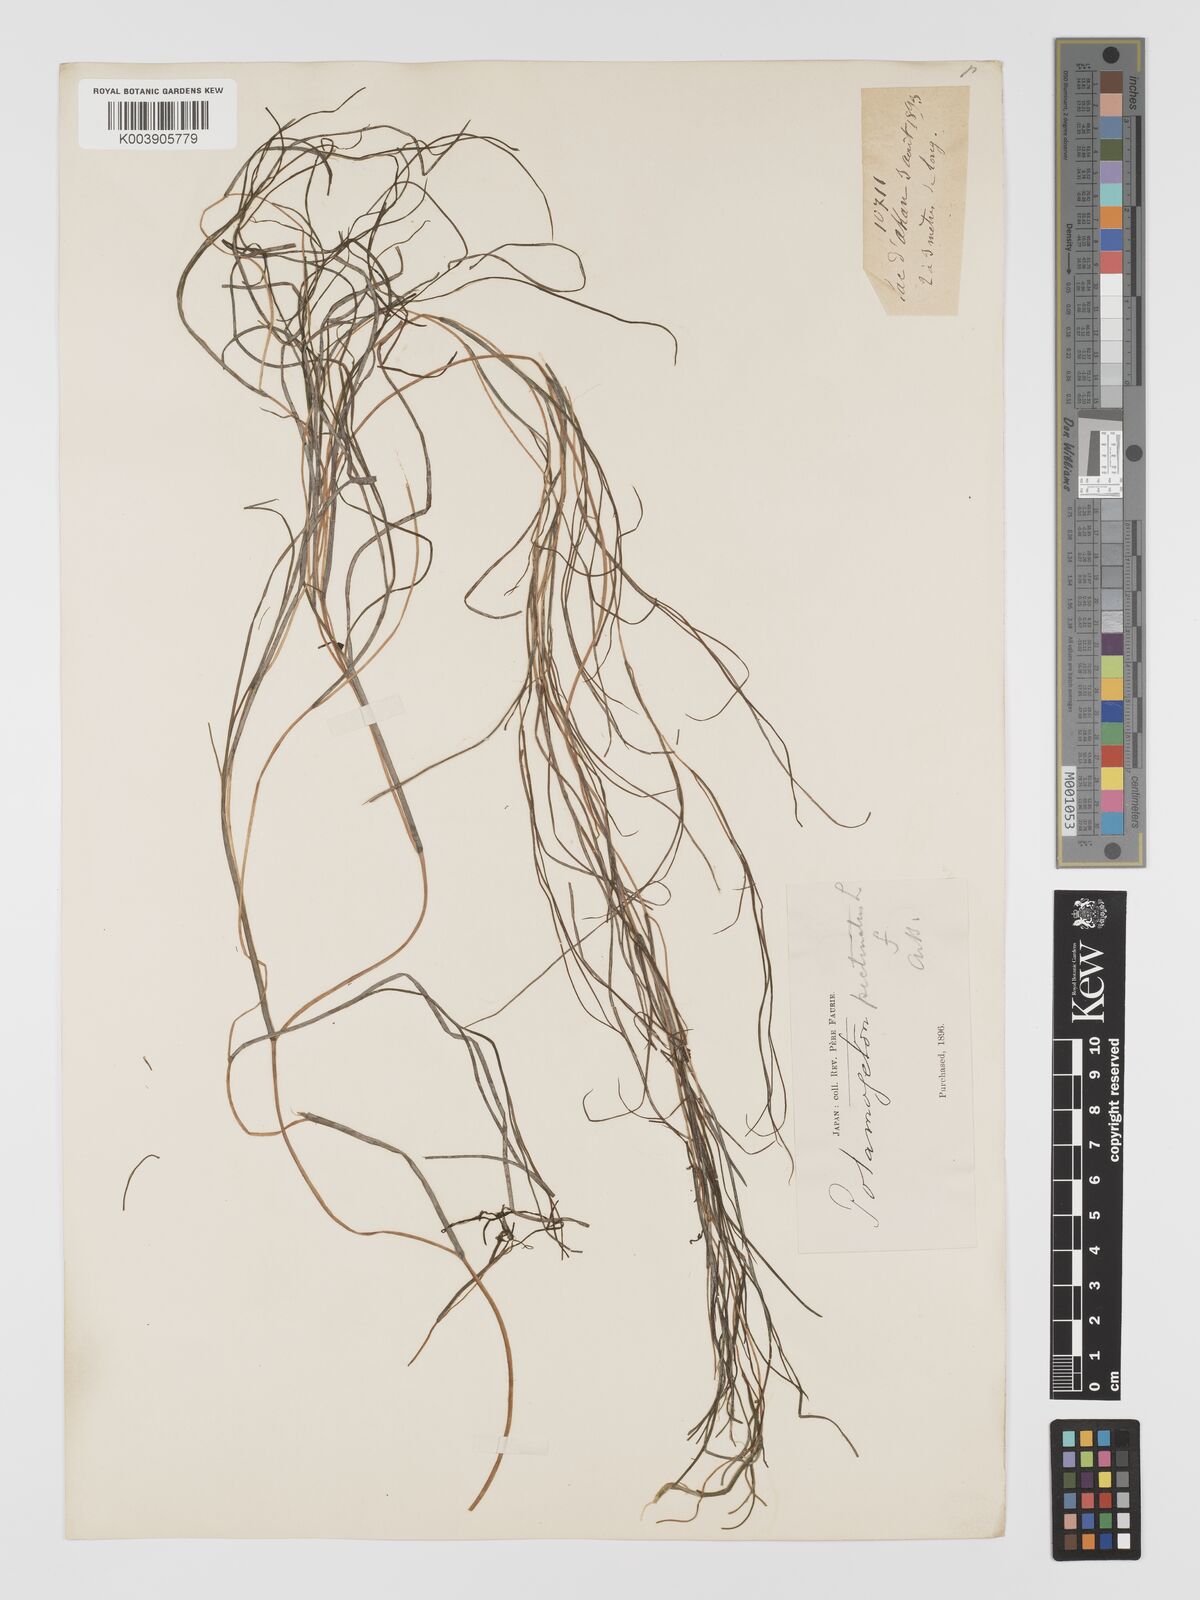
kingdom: Plantae
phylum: Tracheophyta
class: Liliopsida
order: Alismatales
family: Potamogetonaceae
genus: Stuckenia
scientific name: Stuckenia pectinata
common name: Sago pondweed
